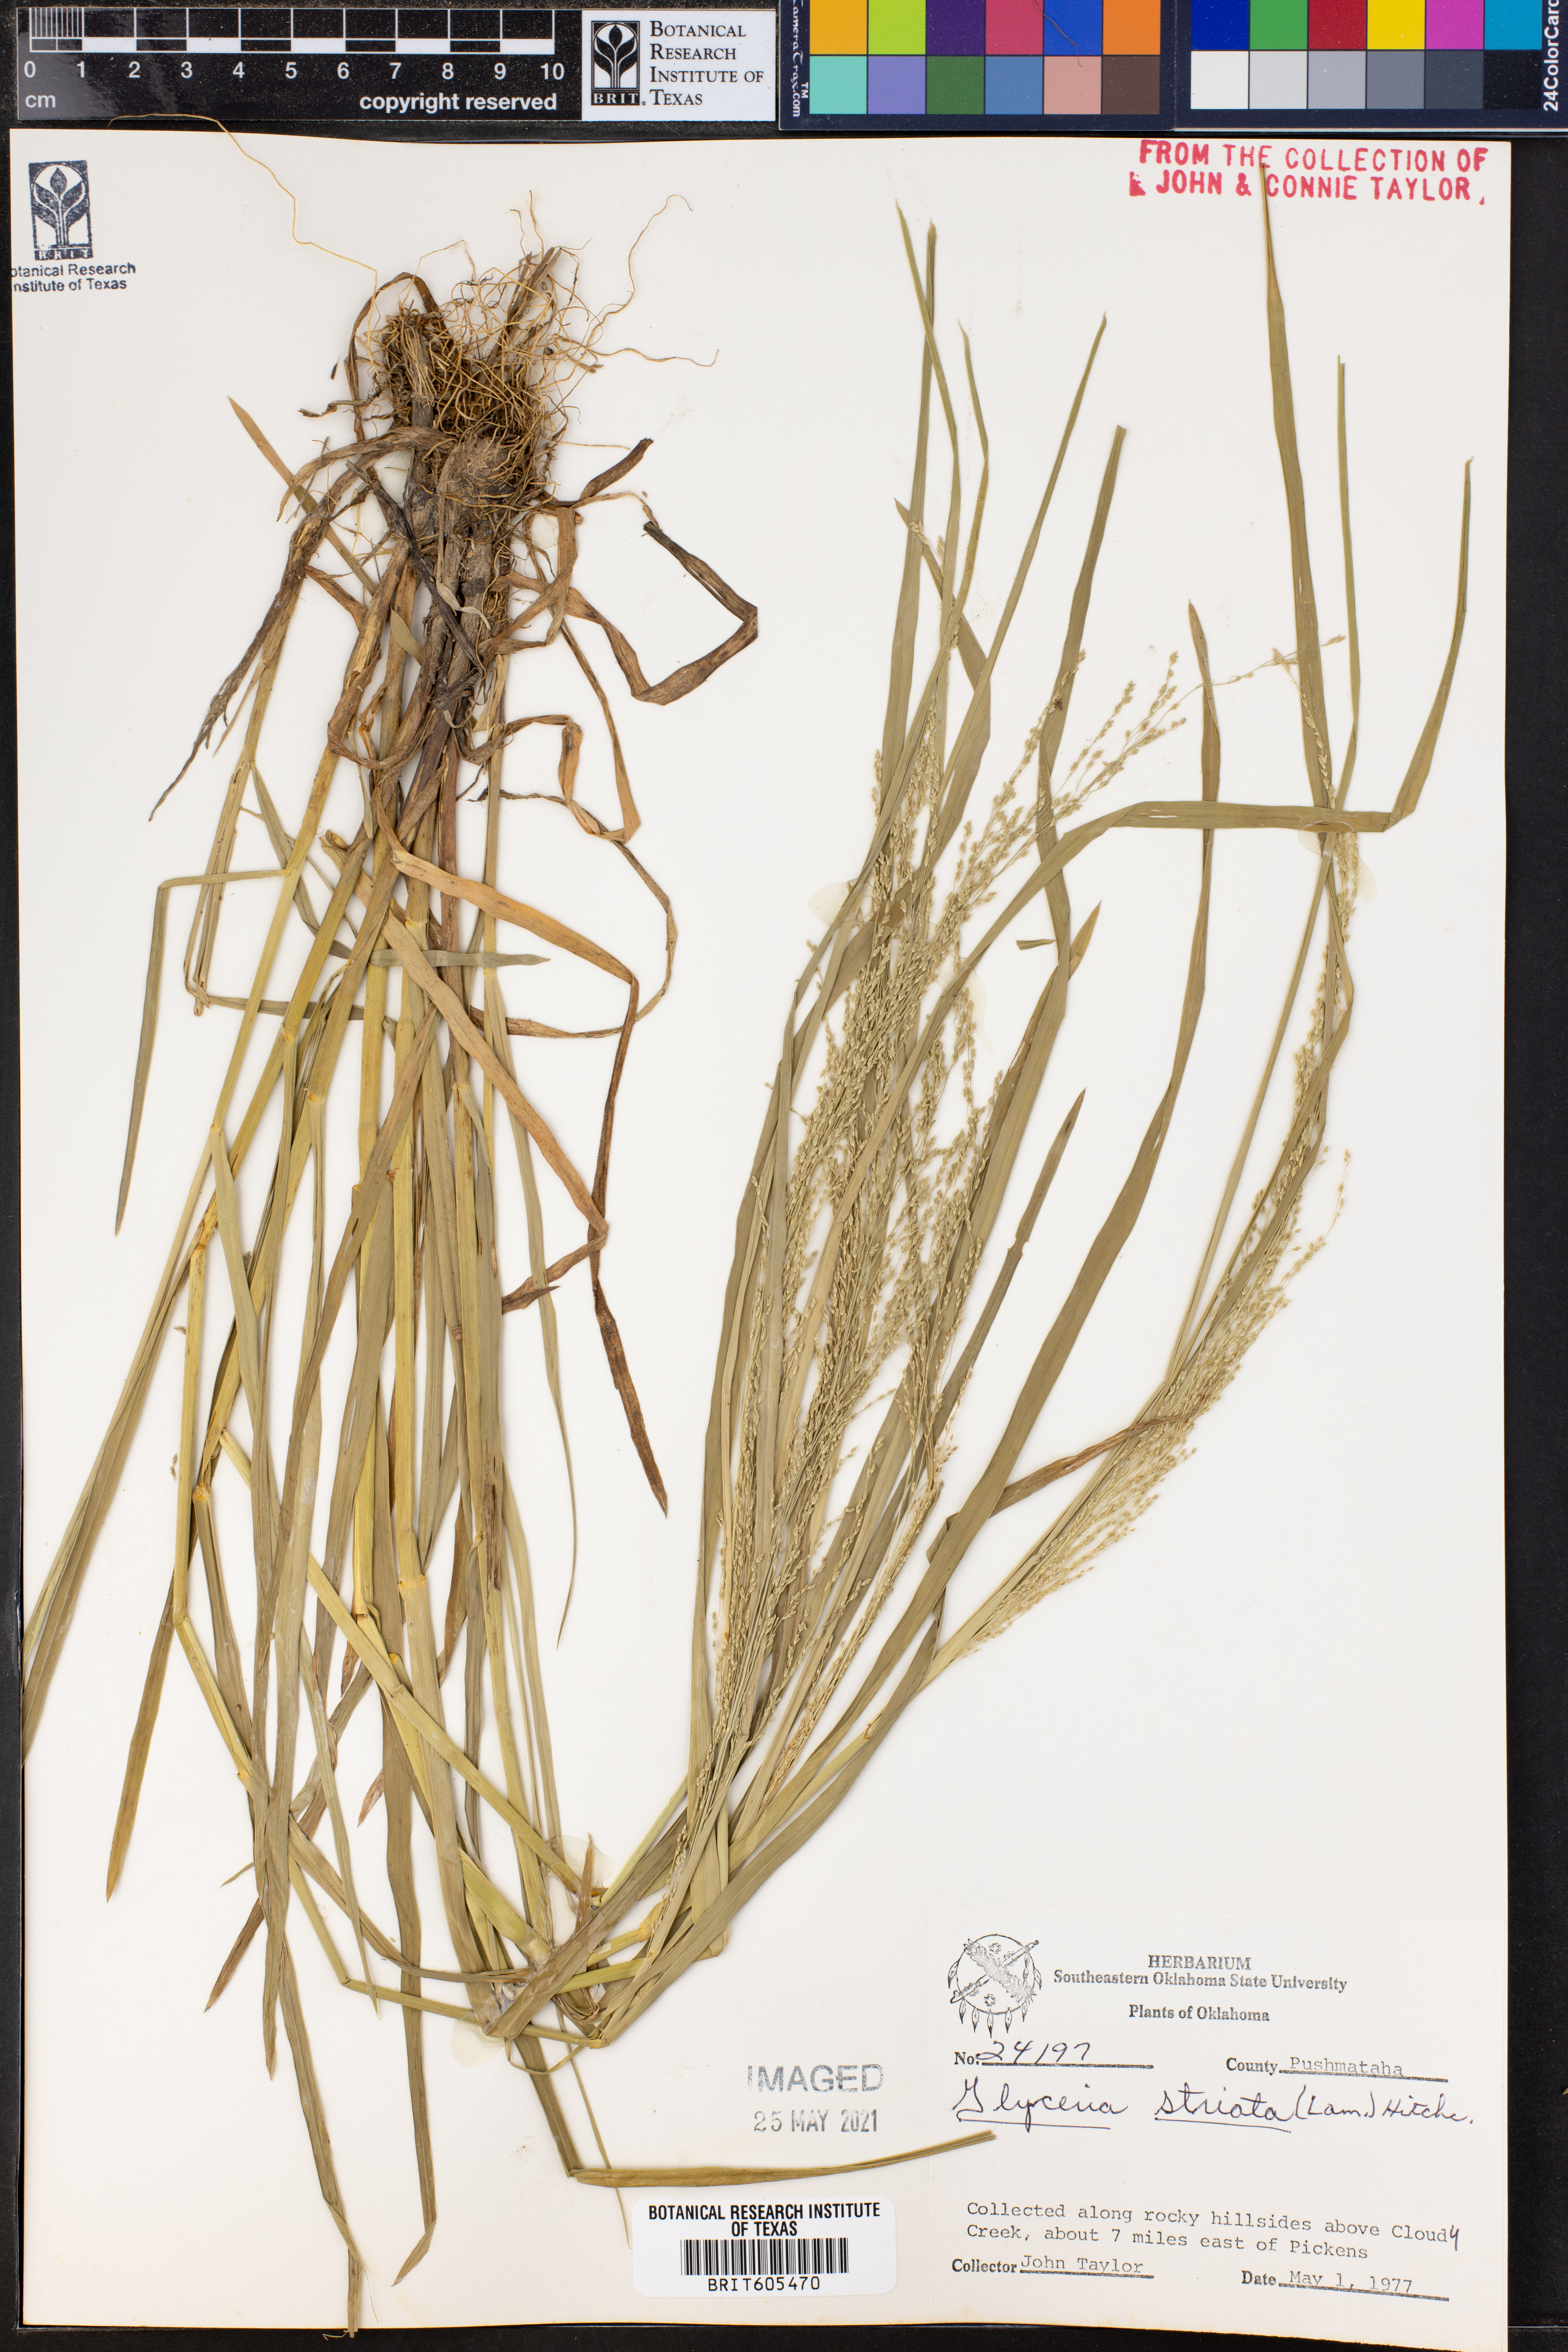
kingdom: Plantae
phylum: Tracheophyta
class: Liliopsida
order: Poales
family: Poaceae
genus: Glyceria
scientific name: Glyceria striata
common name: Fowl manna grass
